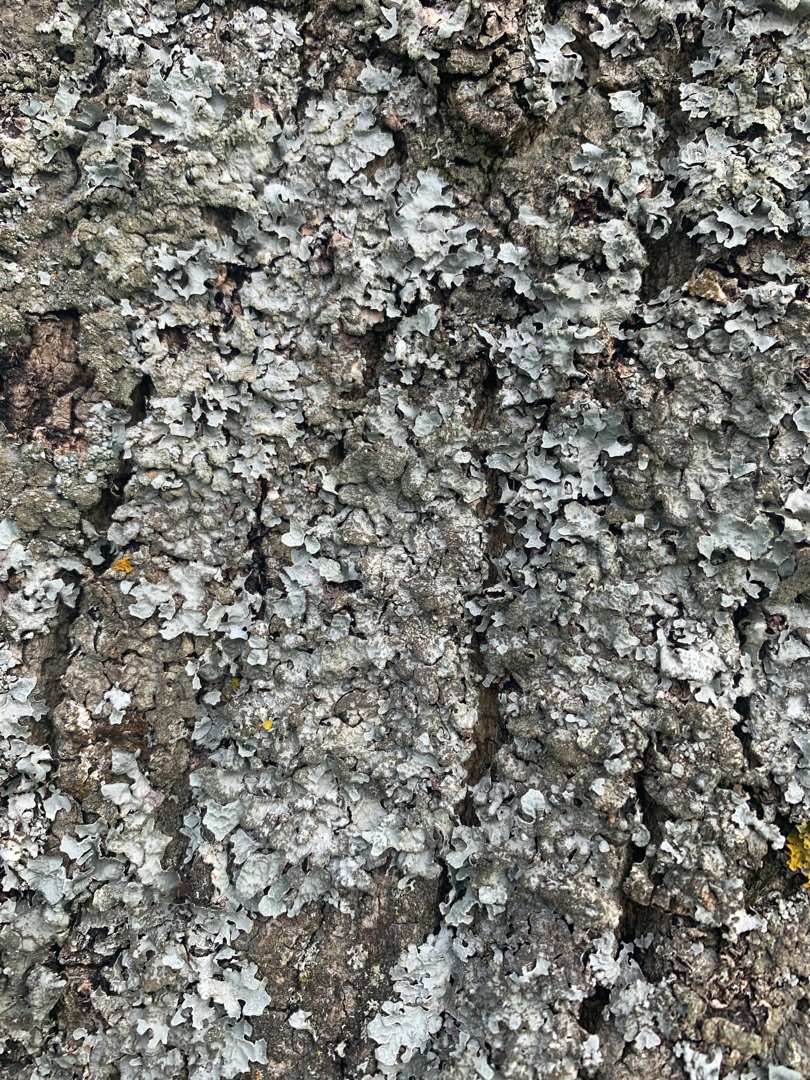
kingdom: Fungi
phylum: Ascomycota
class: Lecanoromycetes
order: Lecanorales
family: Parmeliaceae
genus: Parmelia
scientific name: Parmelia sulcata
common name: Rynket skållav
